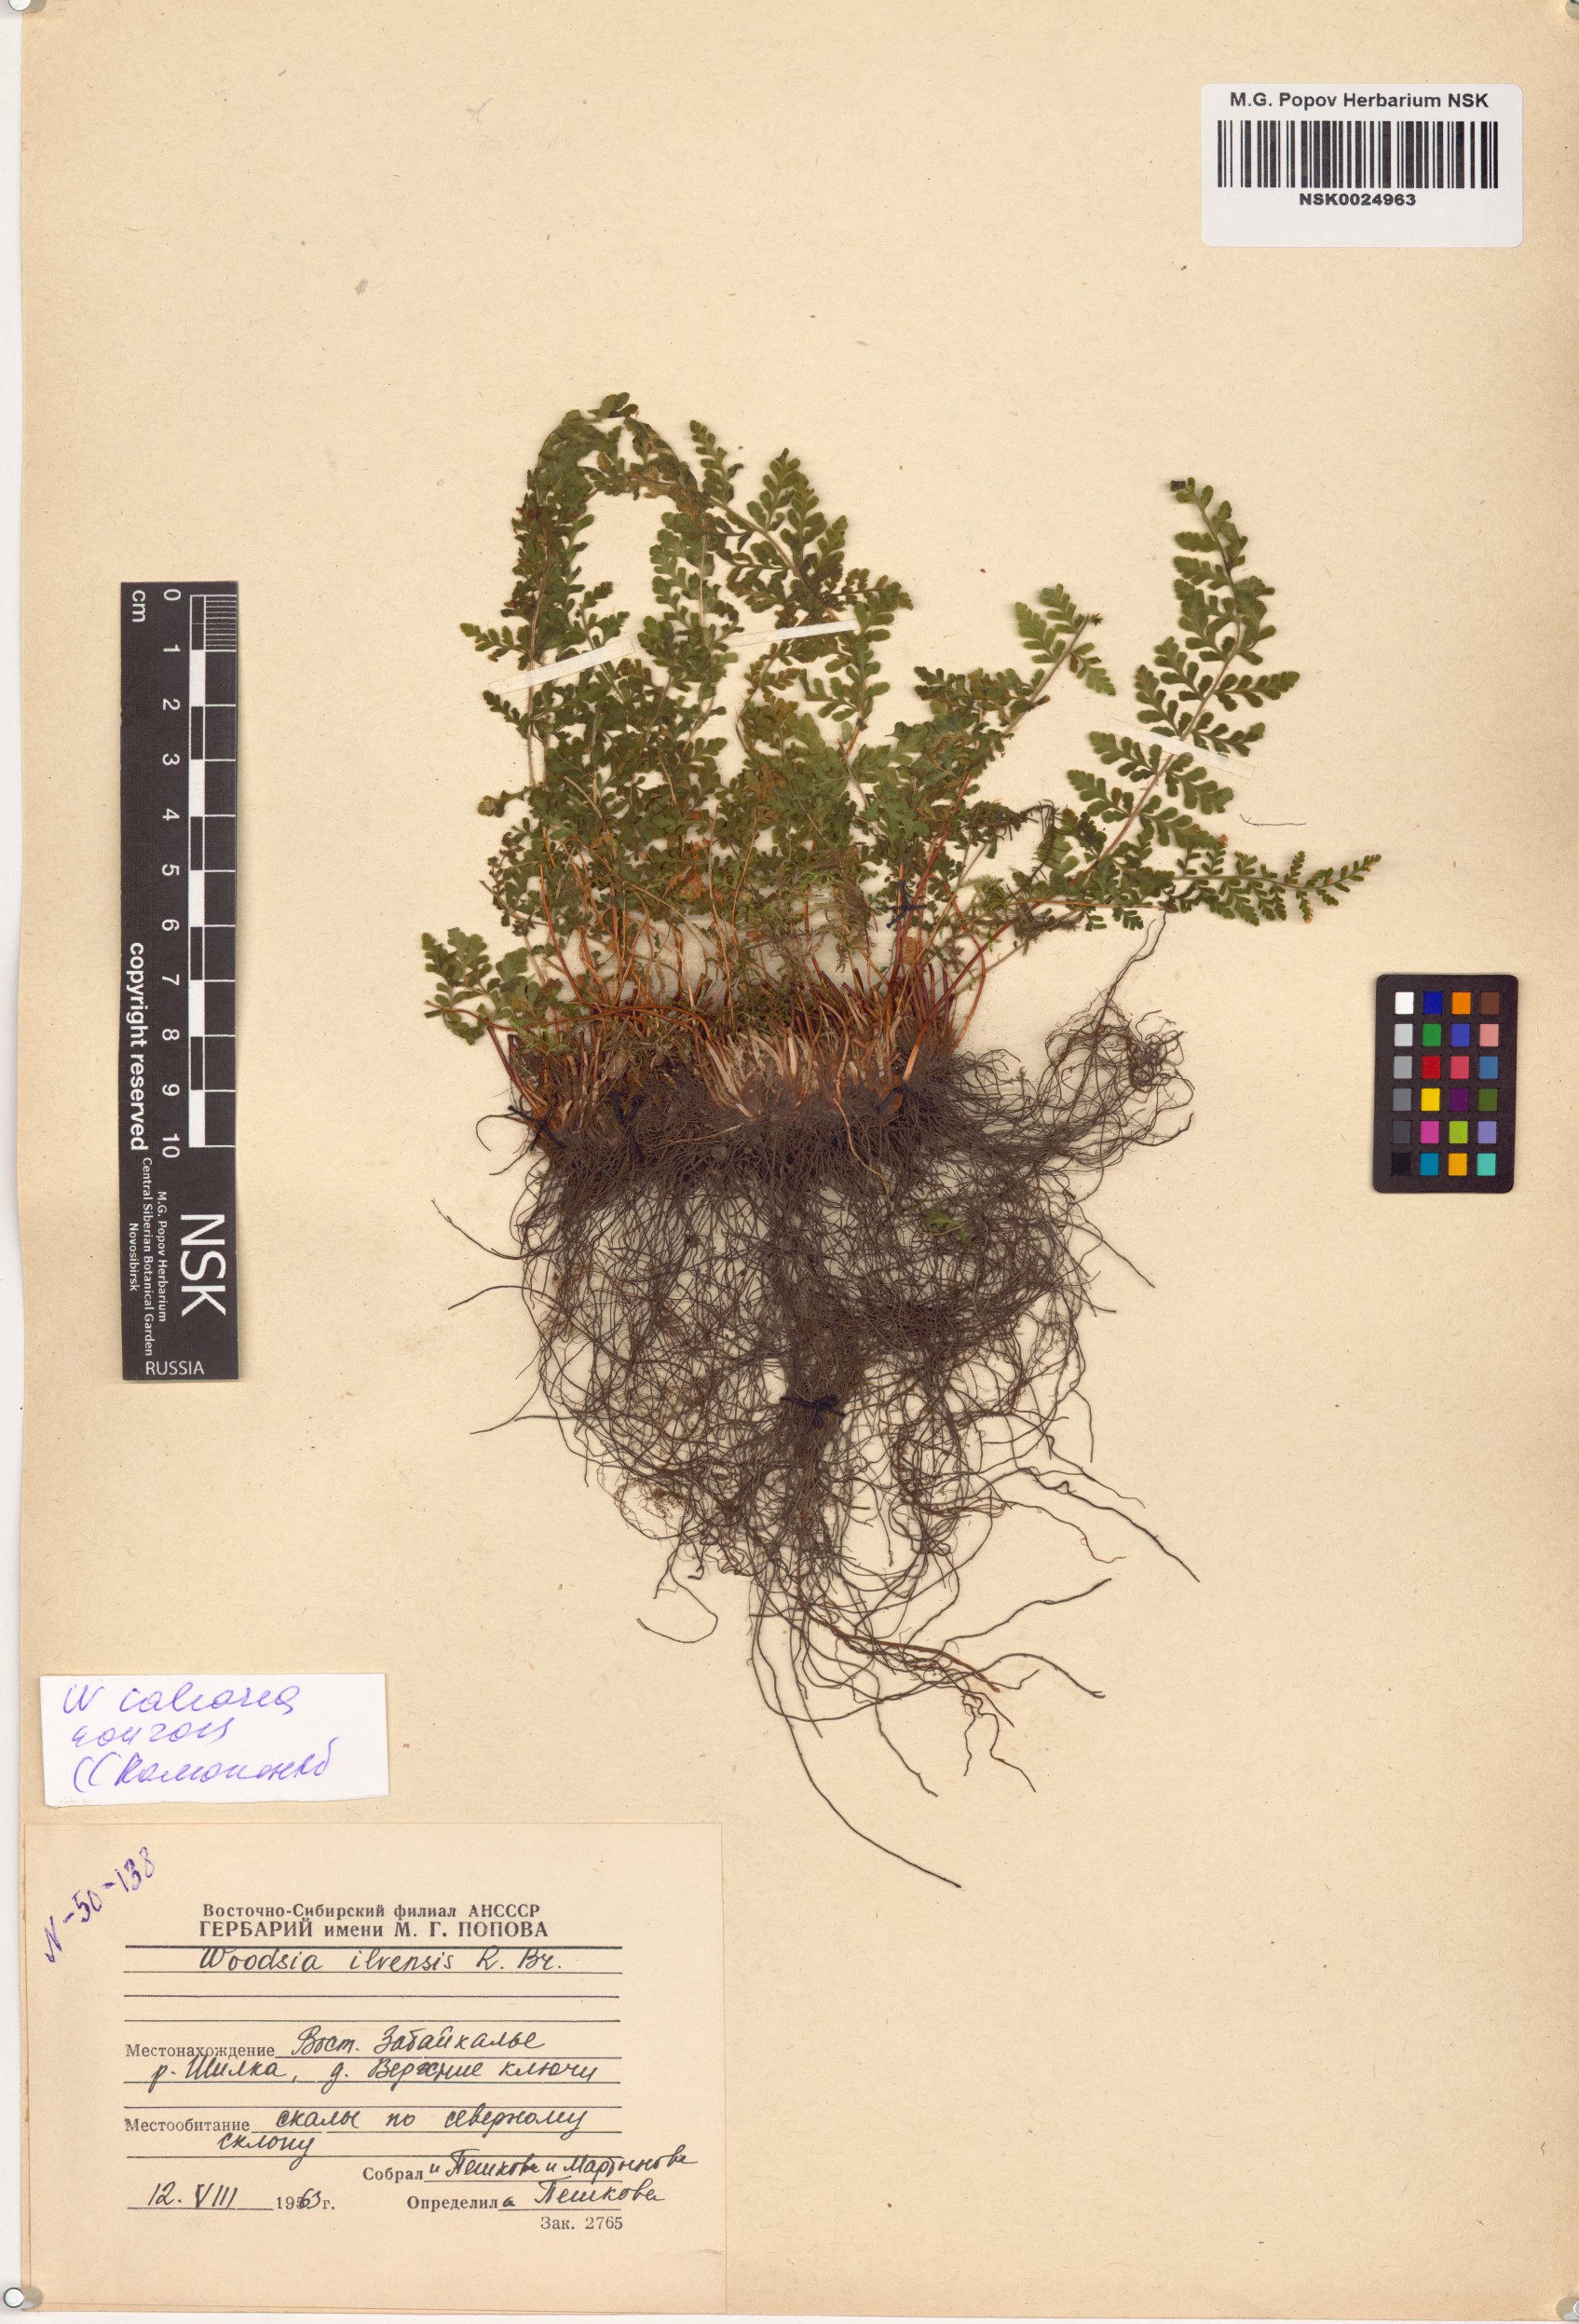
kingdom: Plantae
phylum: Tracheophyta
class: Polypodiopsida
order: Polypodiales
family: Woodsiaceae
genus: Woodsia
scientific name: Woodsia calcarea
